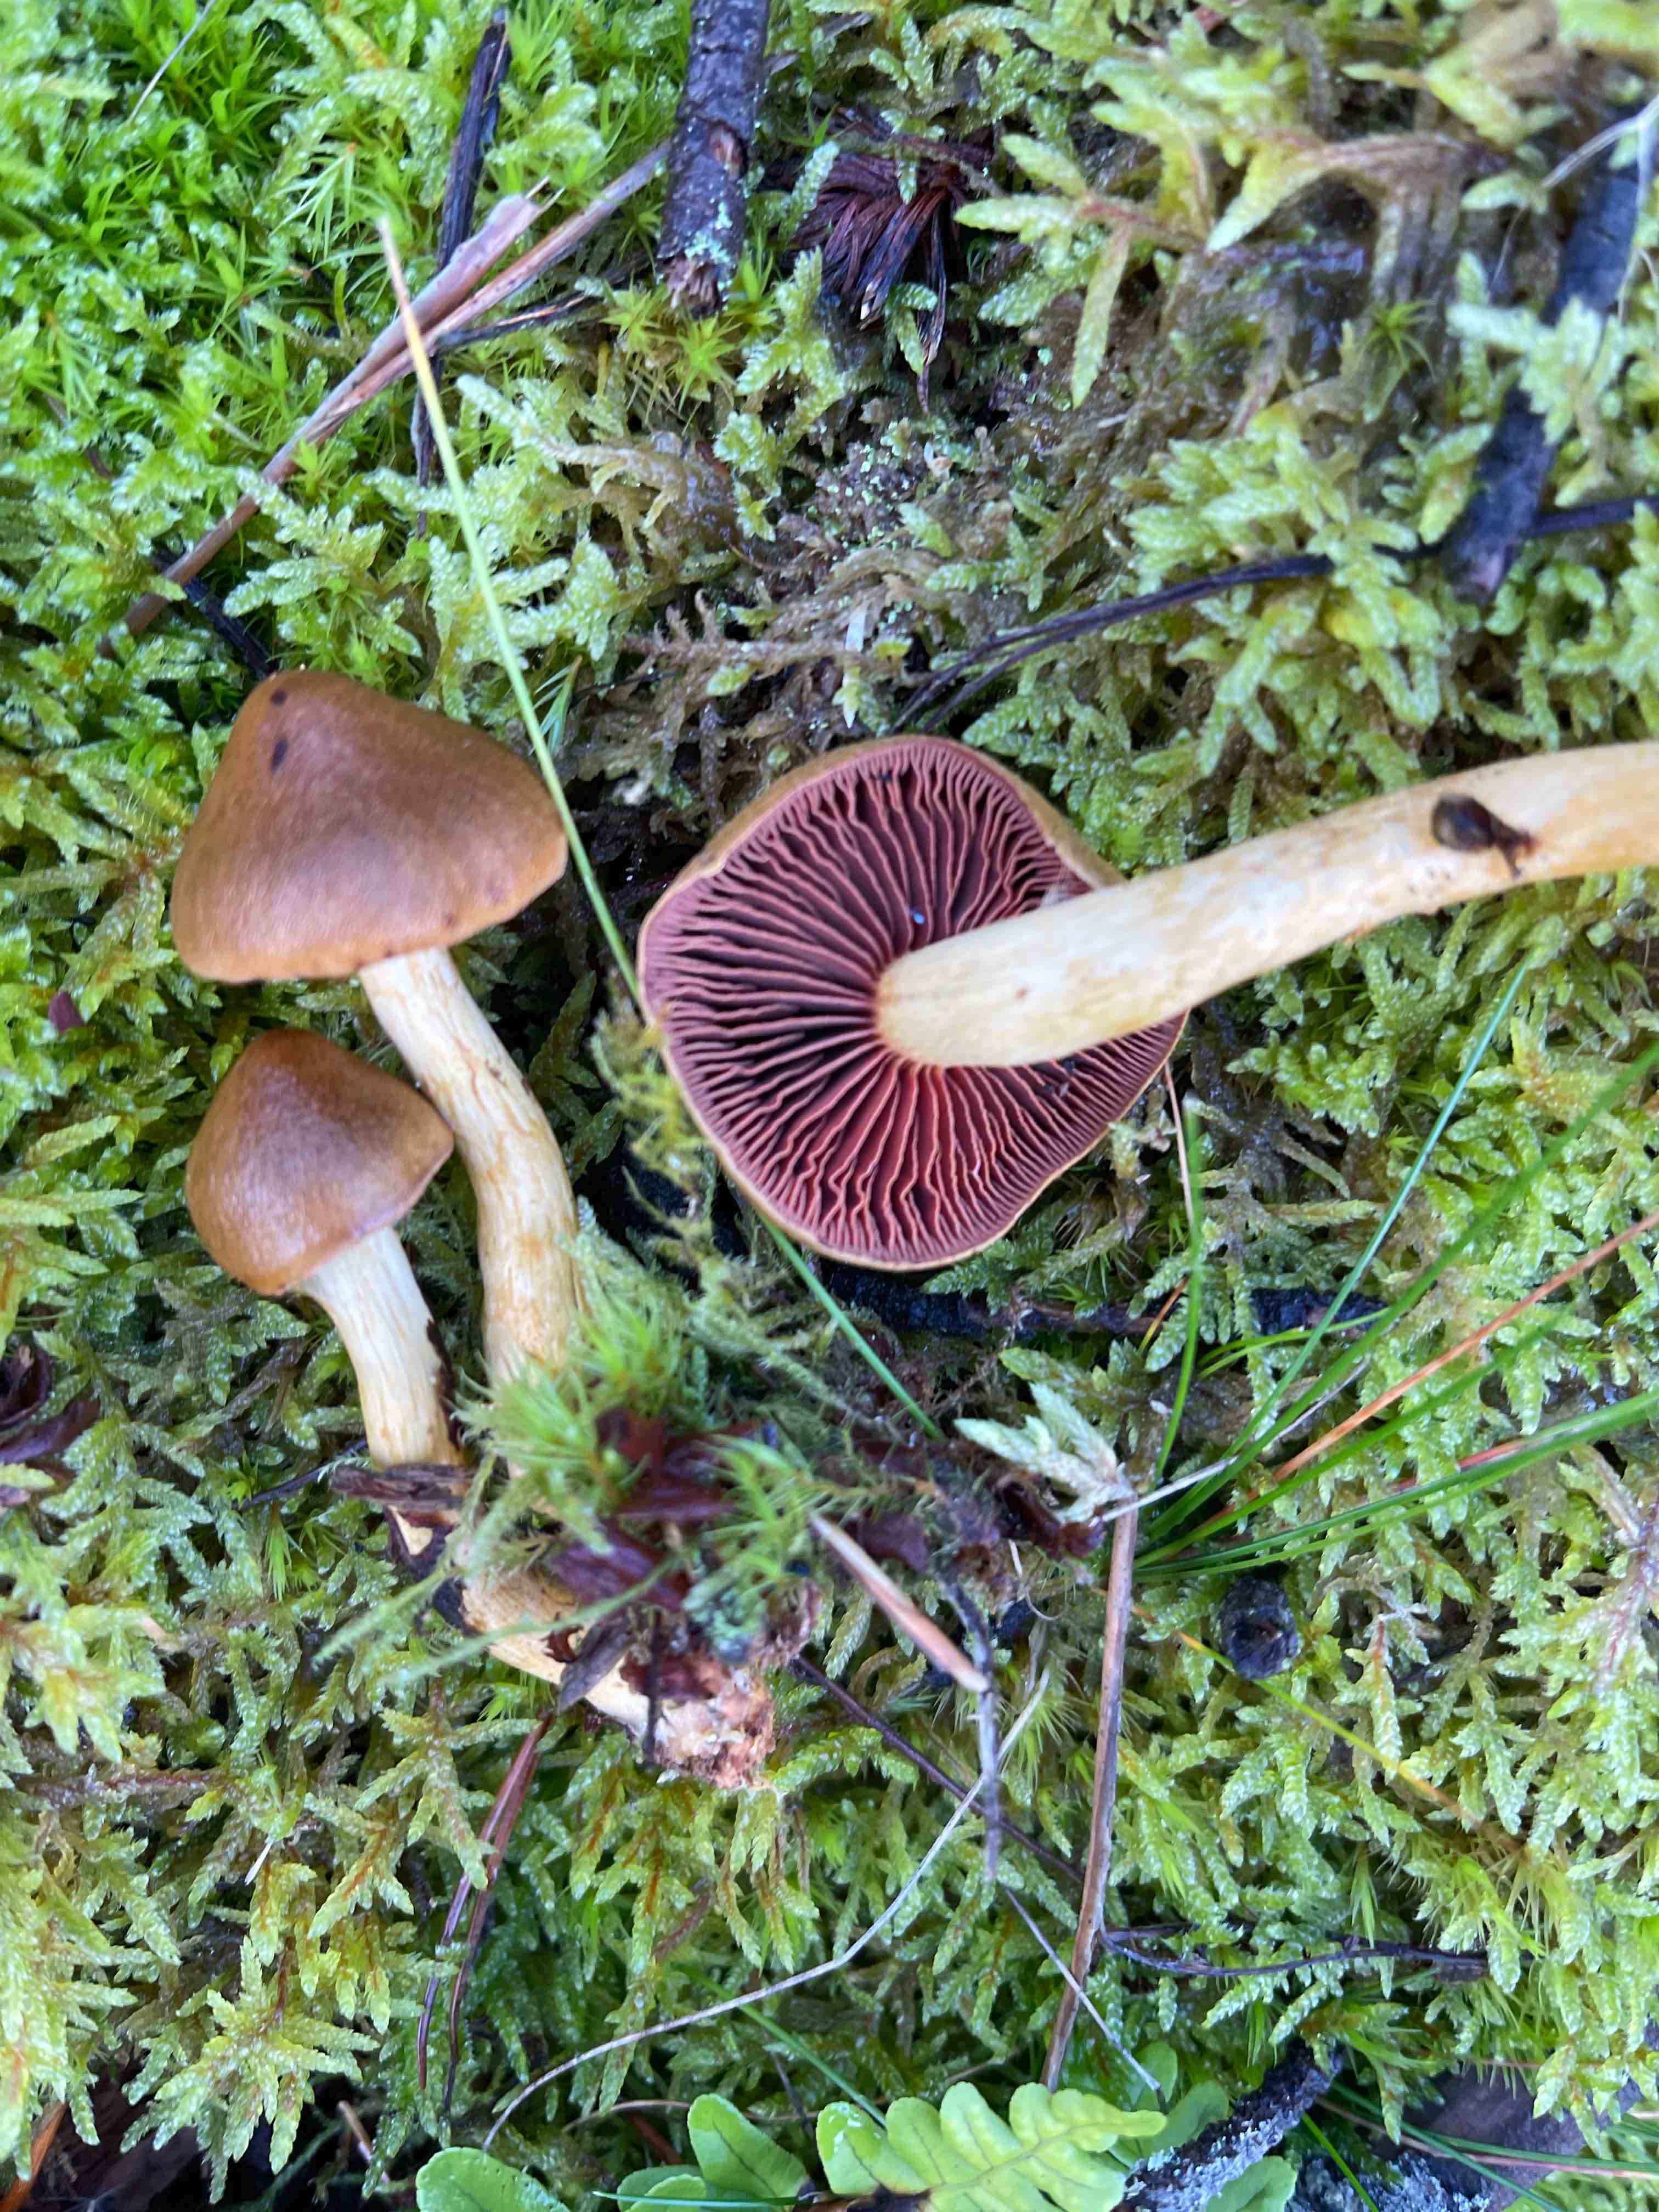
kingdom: Fungi
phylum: Basidiomycota
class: Agaricomycetes
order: Agaricales
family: Cortinariaceae
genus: Cortinarius
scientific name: Cortinarius
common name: cinnoberbladet slørhat
